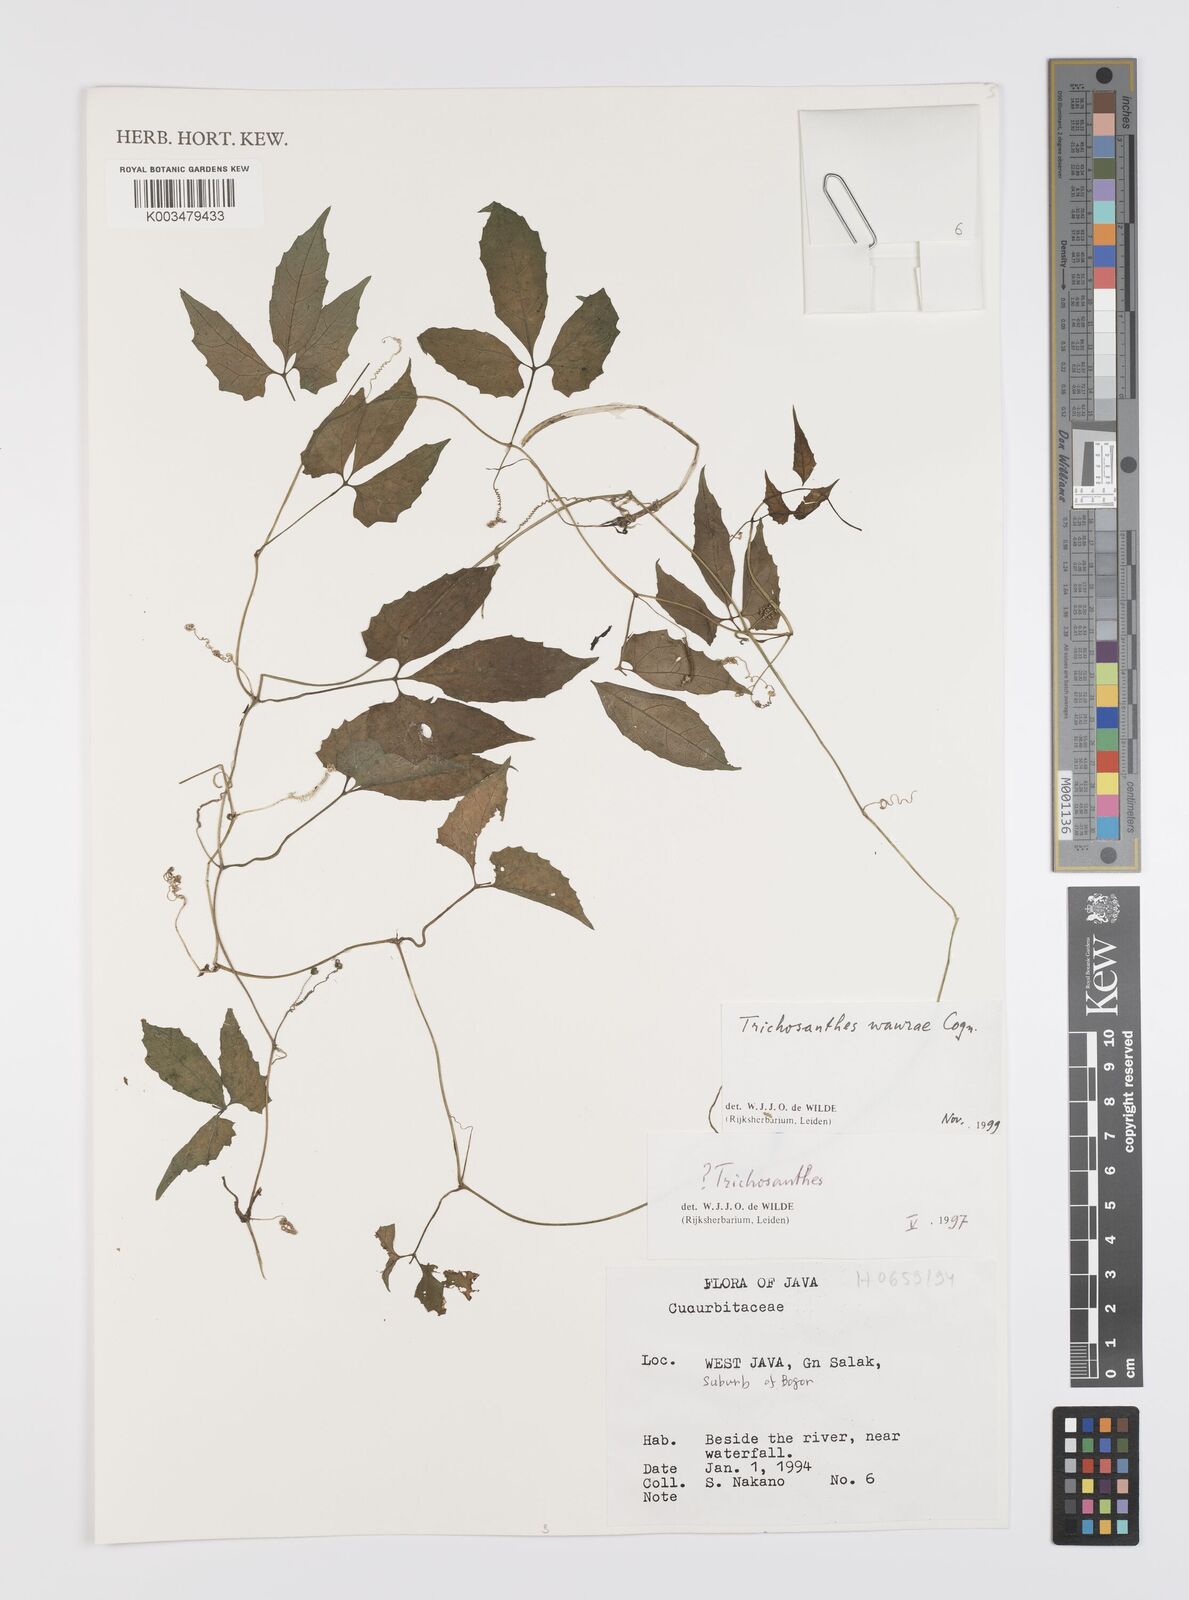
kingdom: Plantae
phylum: Tracheophyta
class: Magnoliopsida
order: Cucurbitales
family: Cucurbitaceae
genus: Trichosanthes
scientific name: Trichosanthes wawrae
